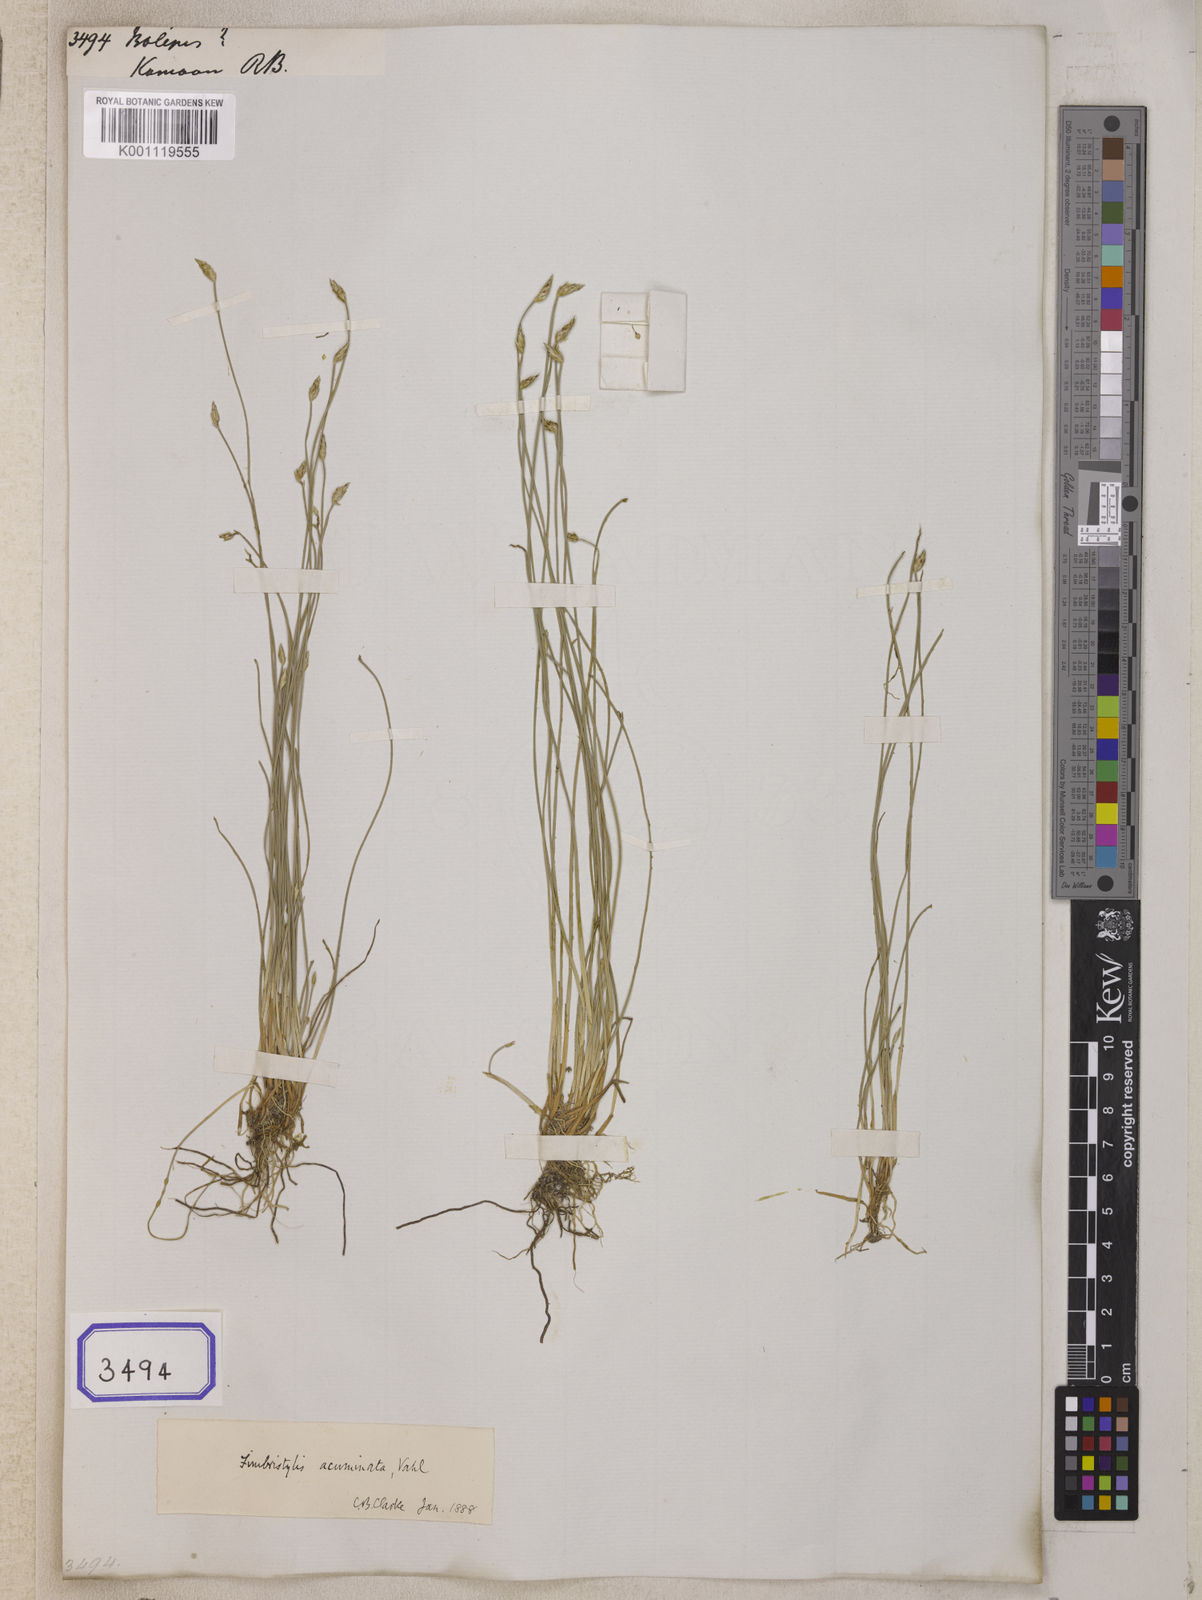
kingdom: Plantae
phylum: Tracheophyta
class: Liliopsida
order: Poales
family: Cyperaceae
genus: Isolepis
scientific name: Isolepis
